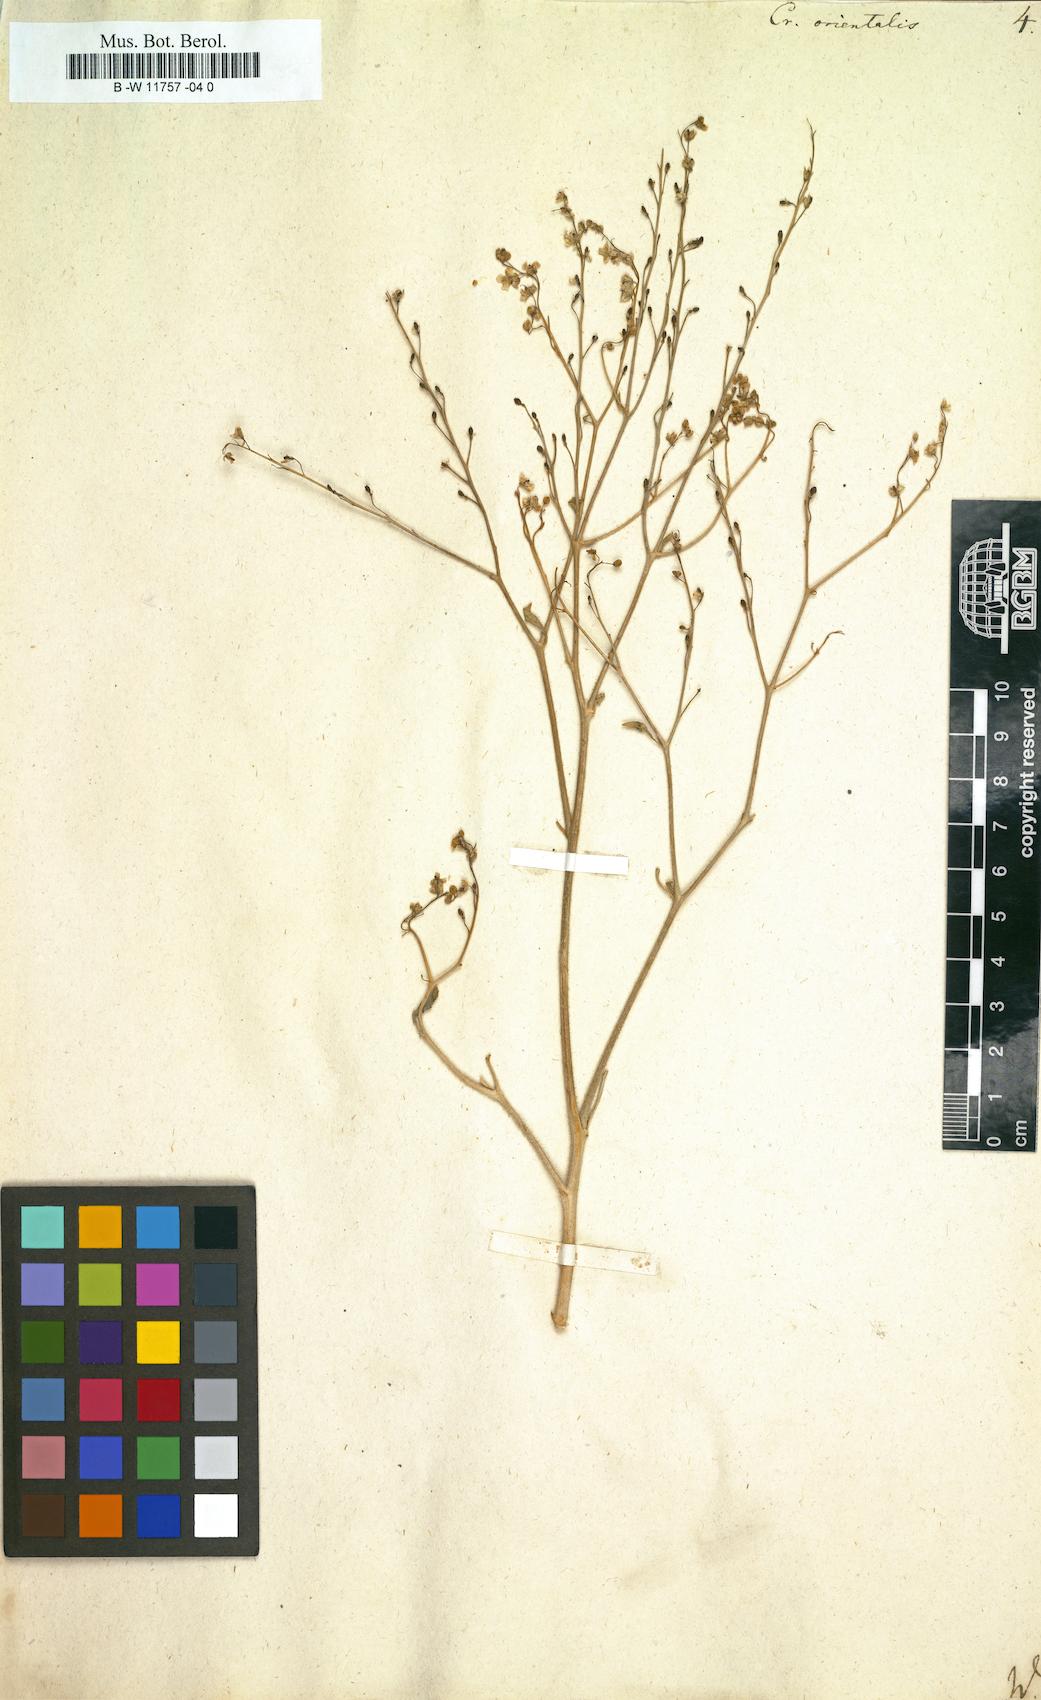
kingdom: Plantae
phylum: Tracheophyta
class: Magnoliopsida
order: Brassicales
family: Brassicaceae
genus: Crambe
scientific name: Crambe orientalis
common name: Oriental sea-kale
